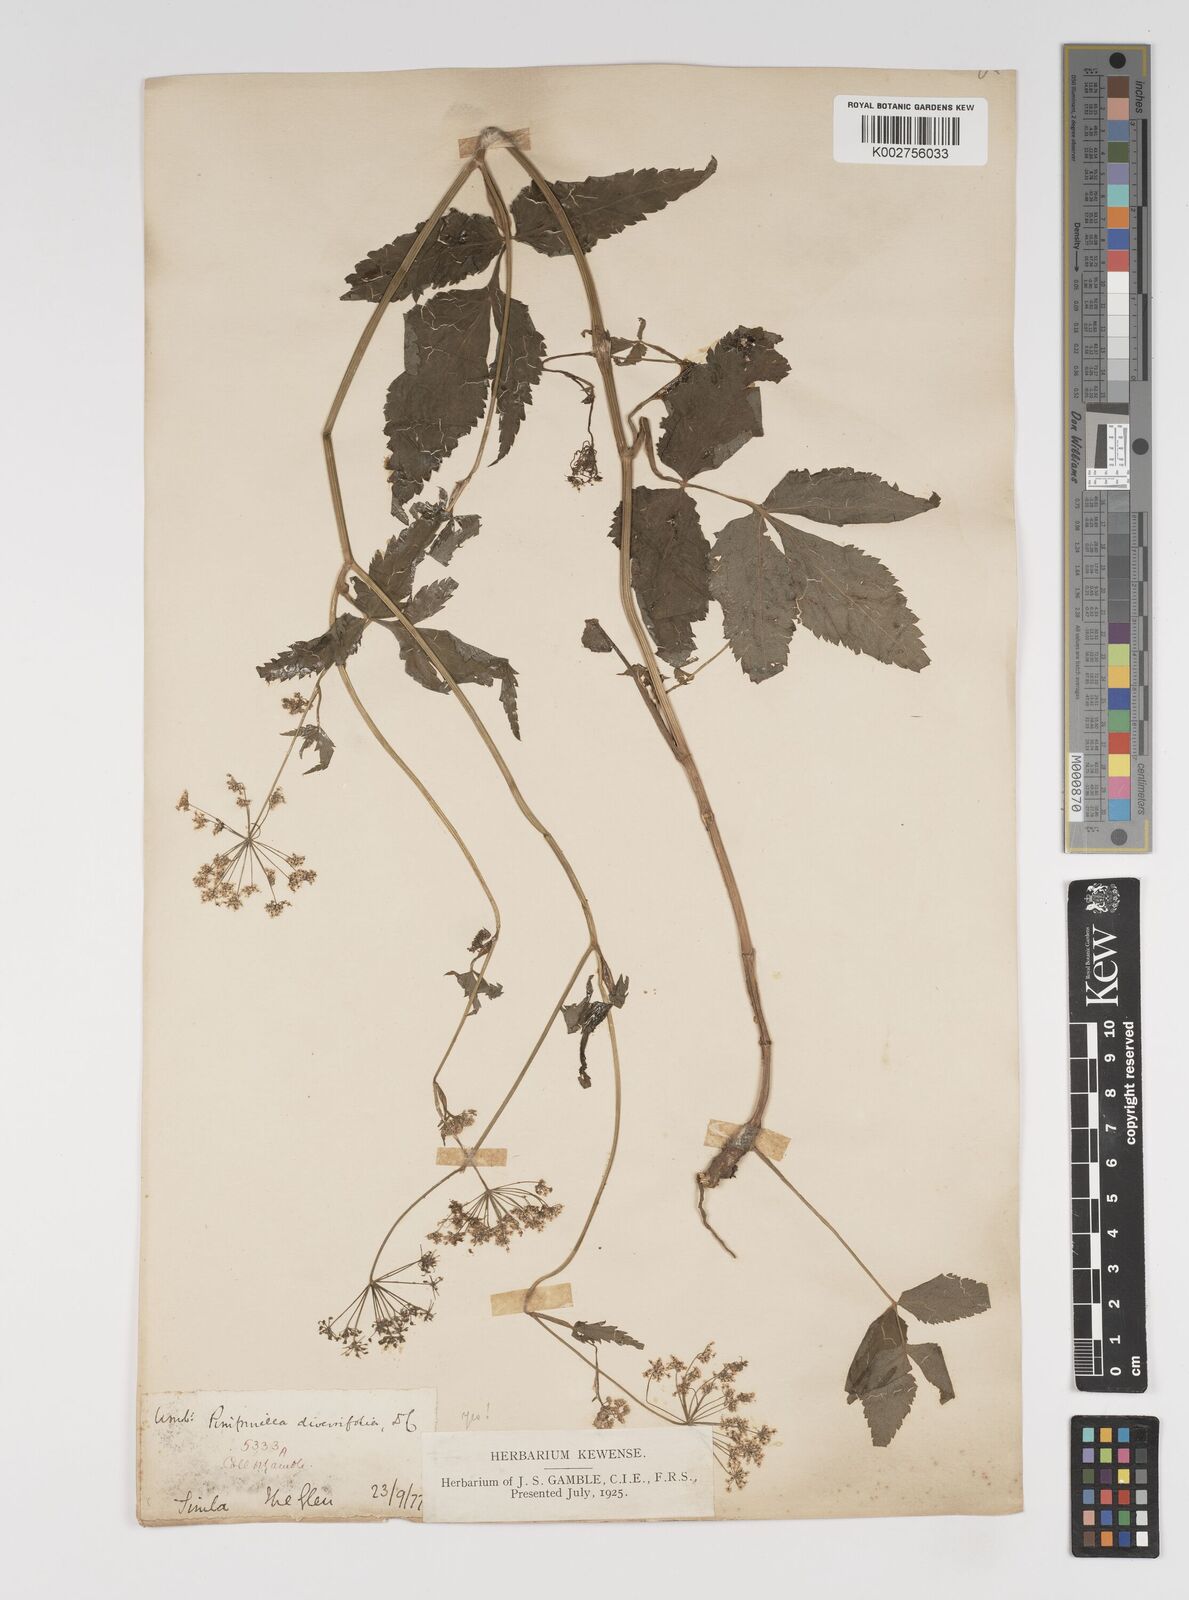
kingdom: Plantae
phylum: Tracheophyta
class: Magnoliopsida
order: Apiales
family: Apiaceae
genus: Pimpinella
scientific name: Pimpinella diversifolia
